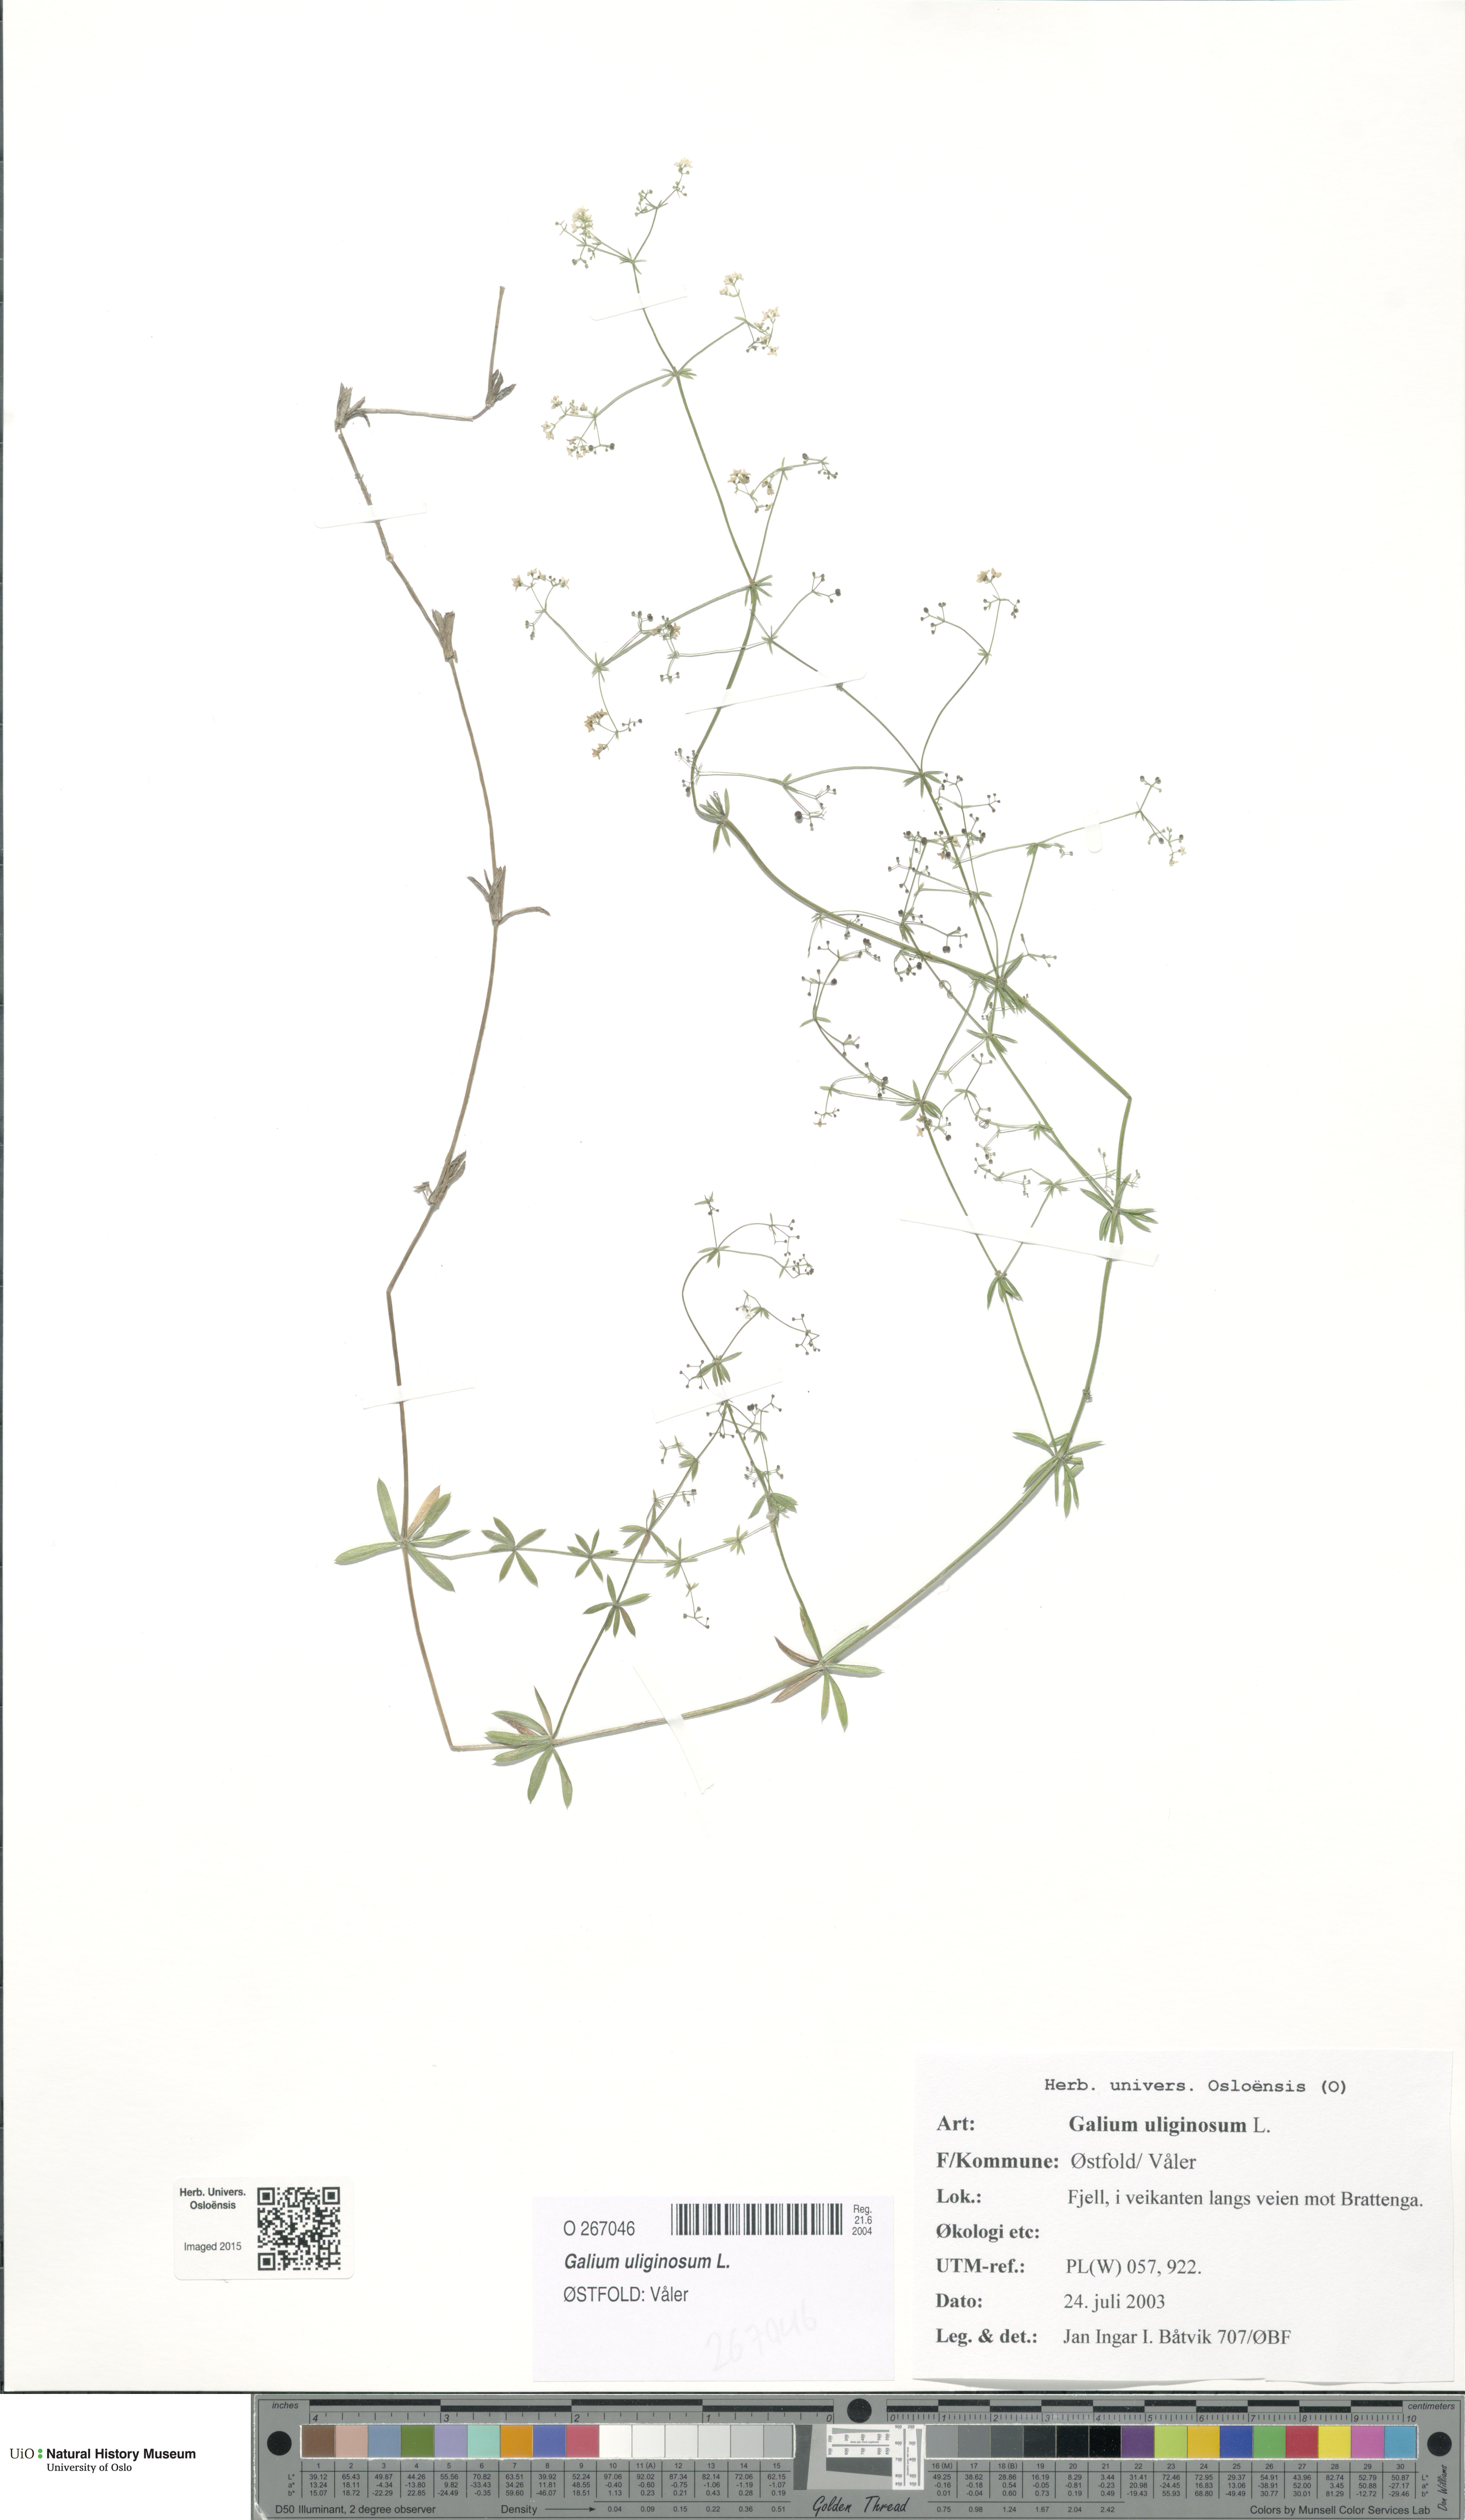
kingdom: Plantae
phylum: Tracheophyta
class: Magnoliopsida
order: Gentianales
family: Rubiaceae
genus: Galium
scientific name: Galium uliginosum
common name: Fen bedstraw
